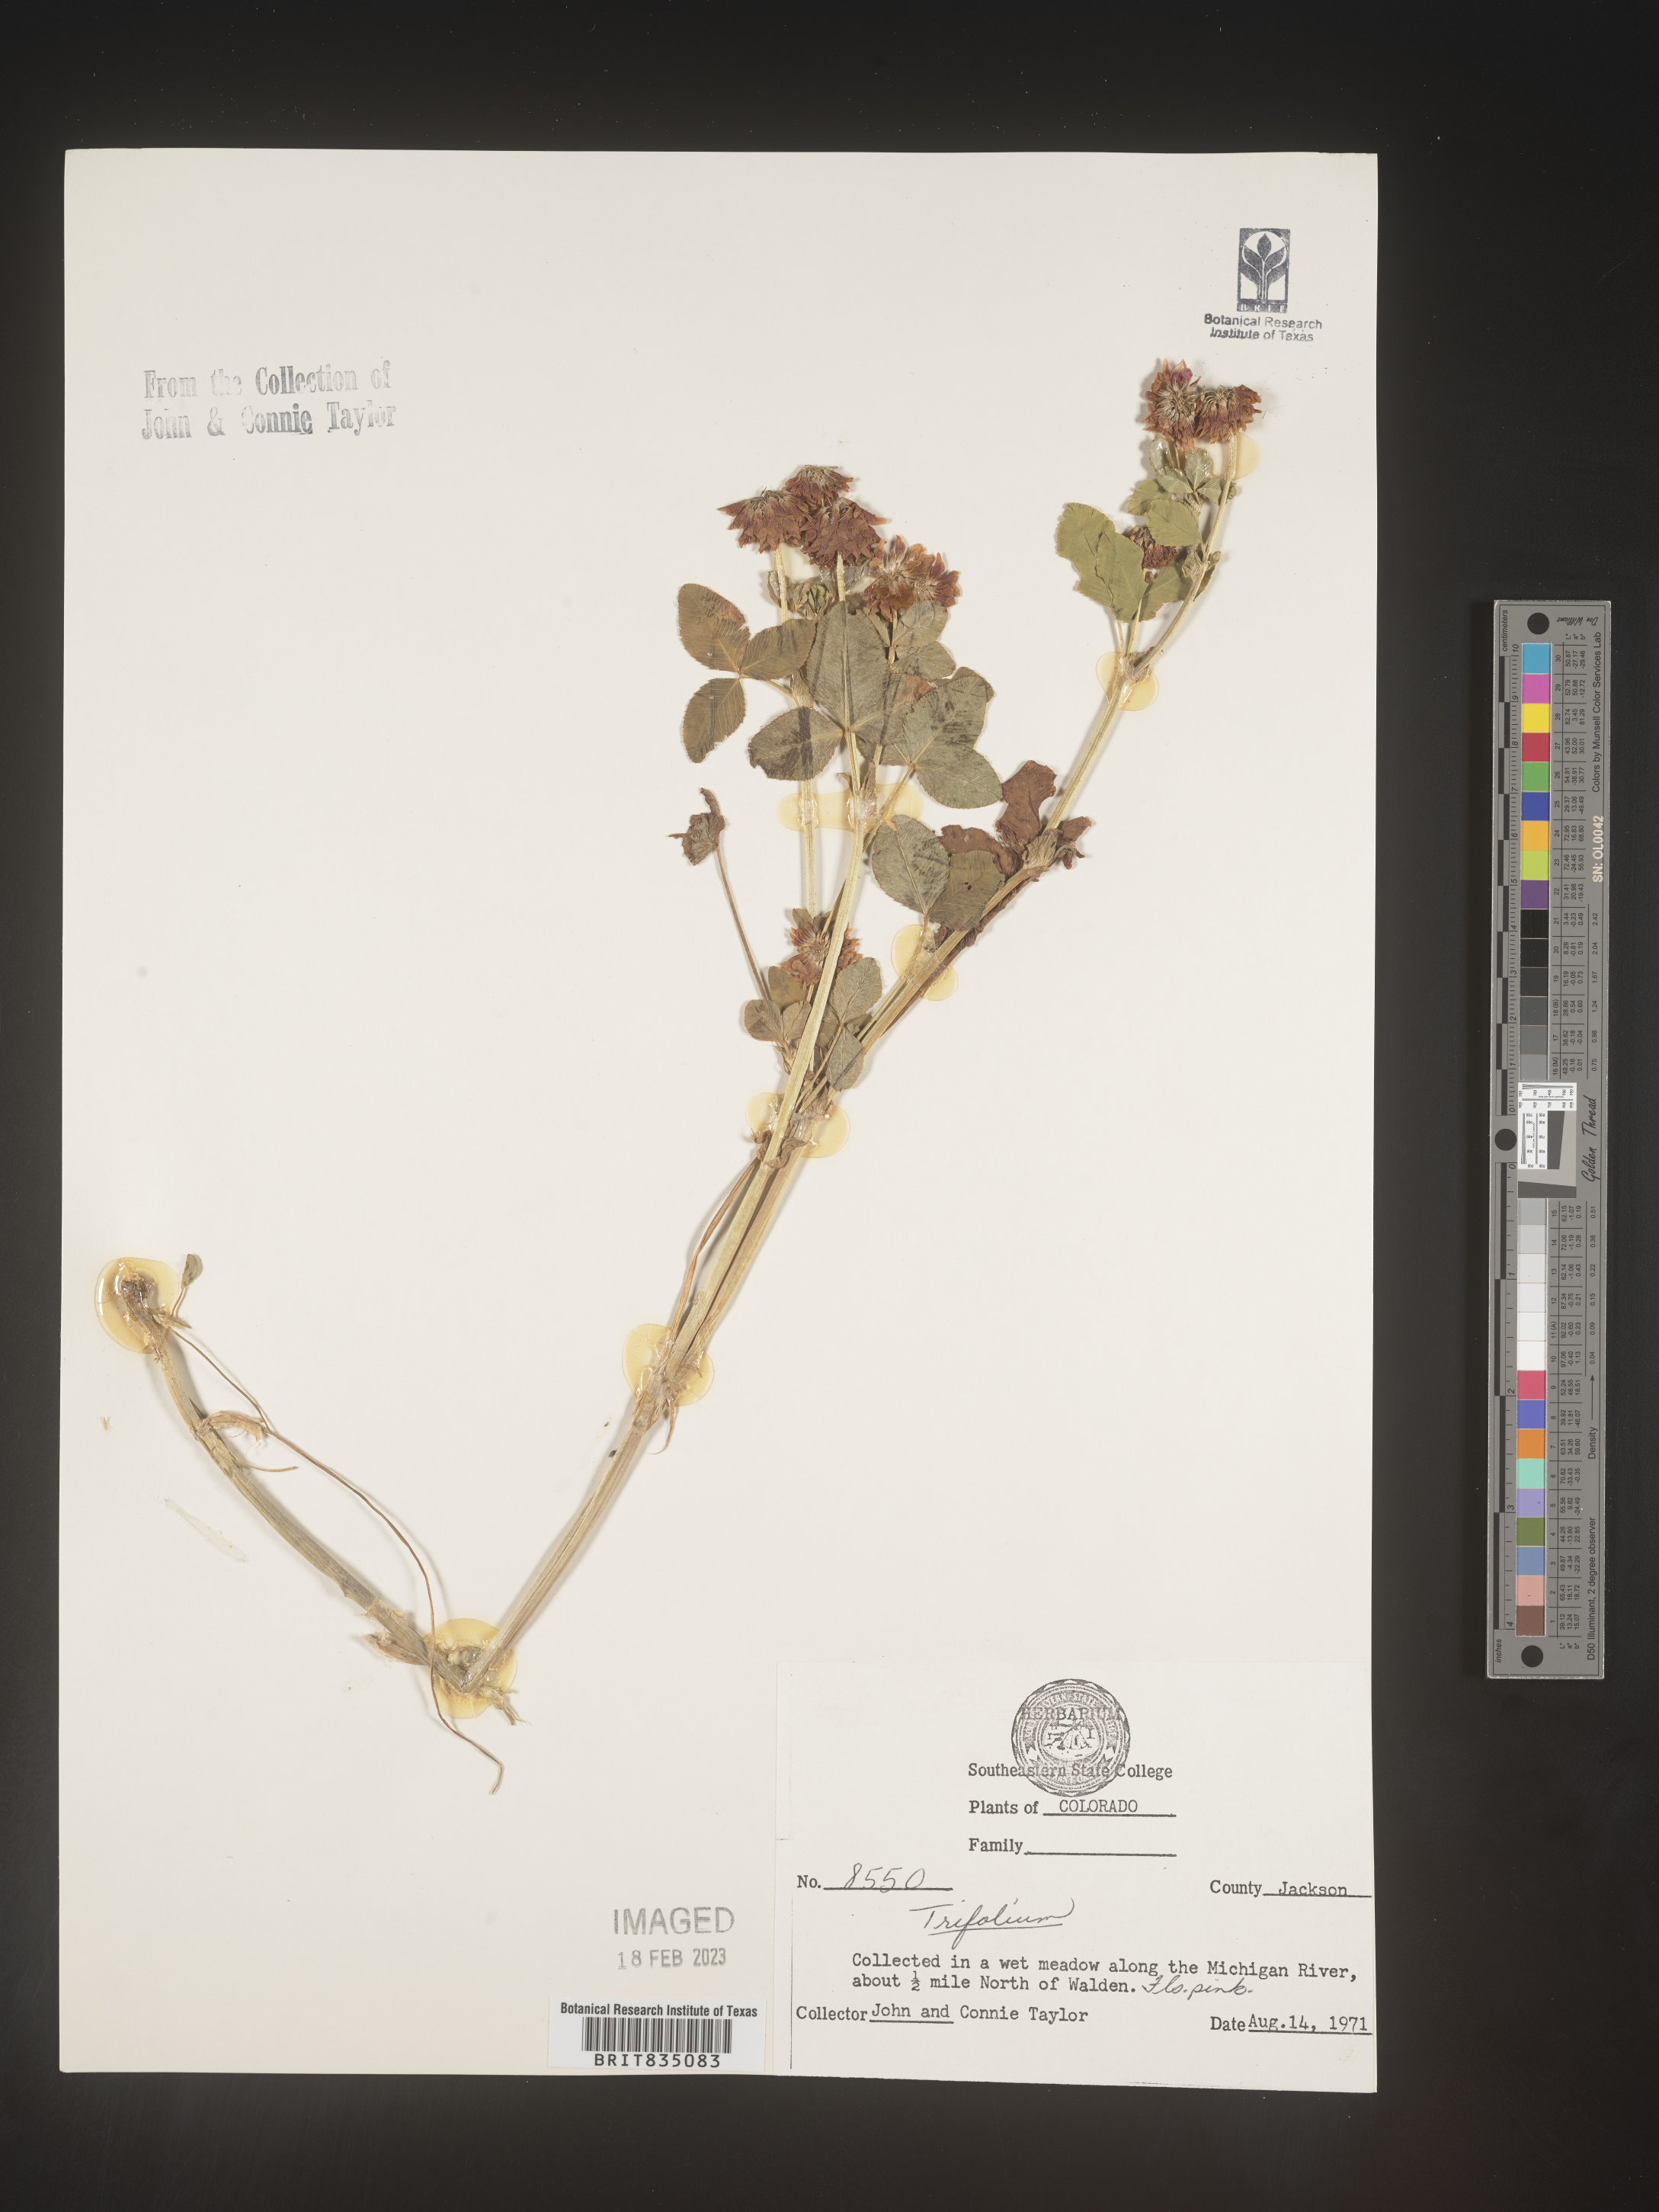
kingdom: Plantae
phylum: Tracheophyta
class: Magnoliopsida
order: Fabales
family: Fabaceae
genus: Trifolium
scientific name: Trifolium
